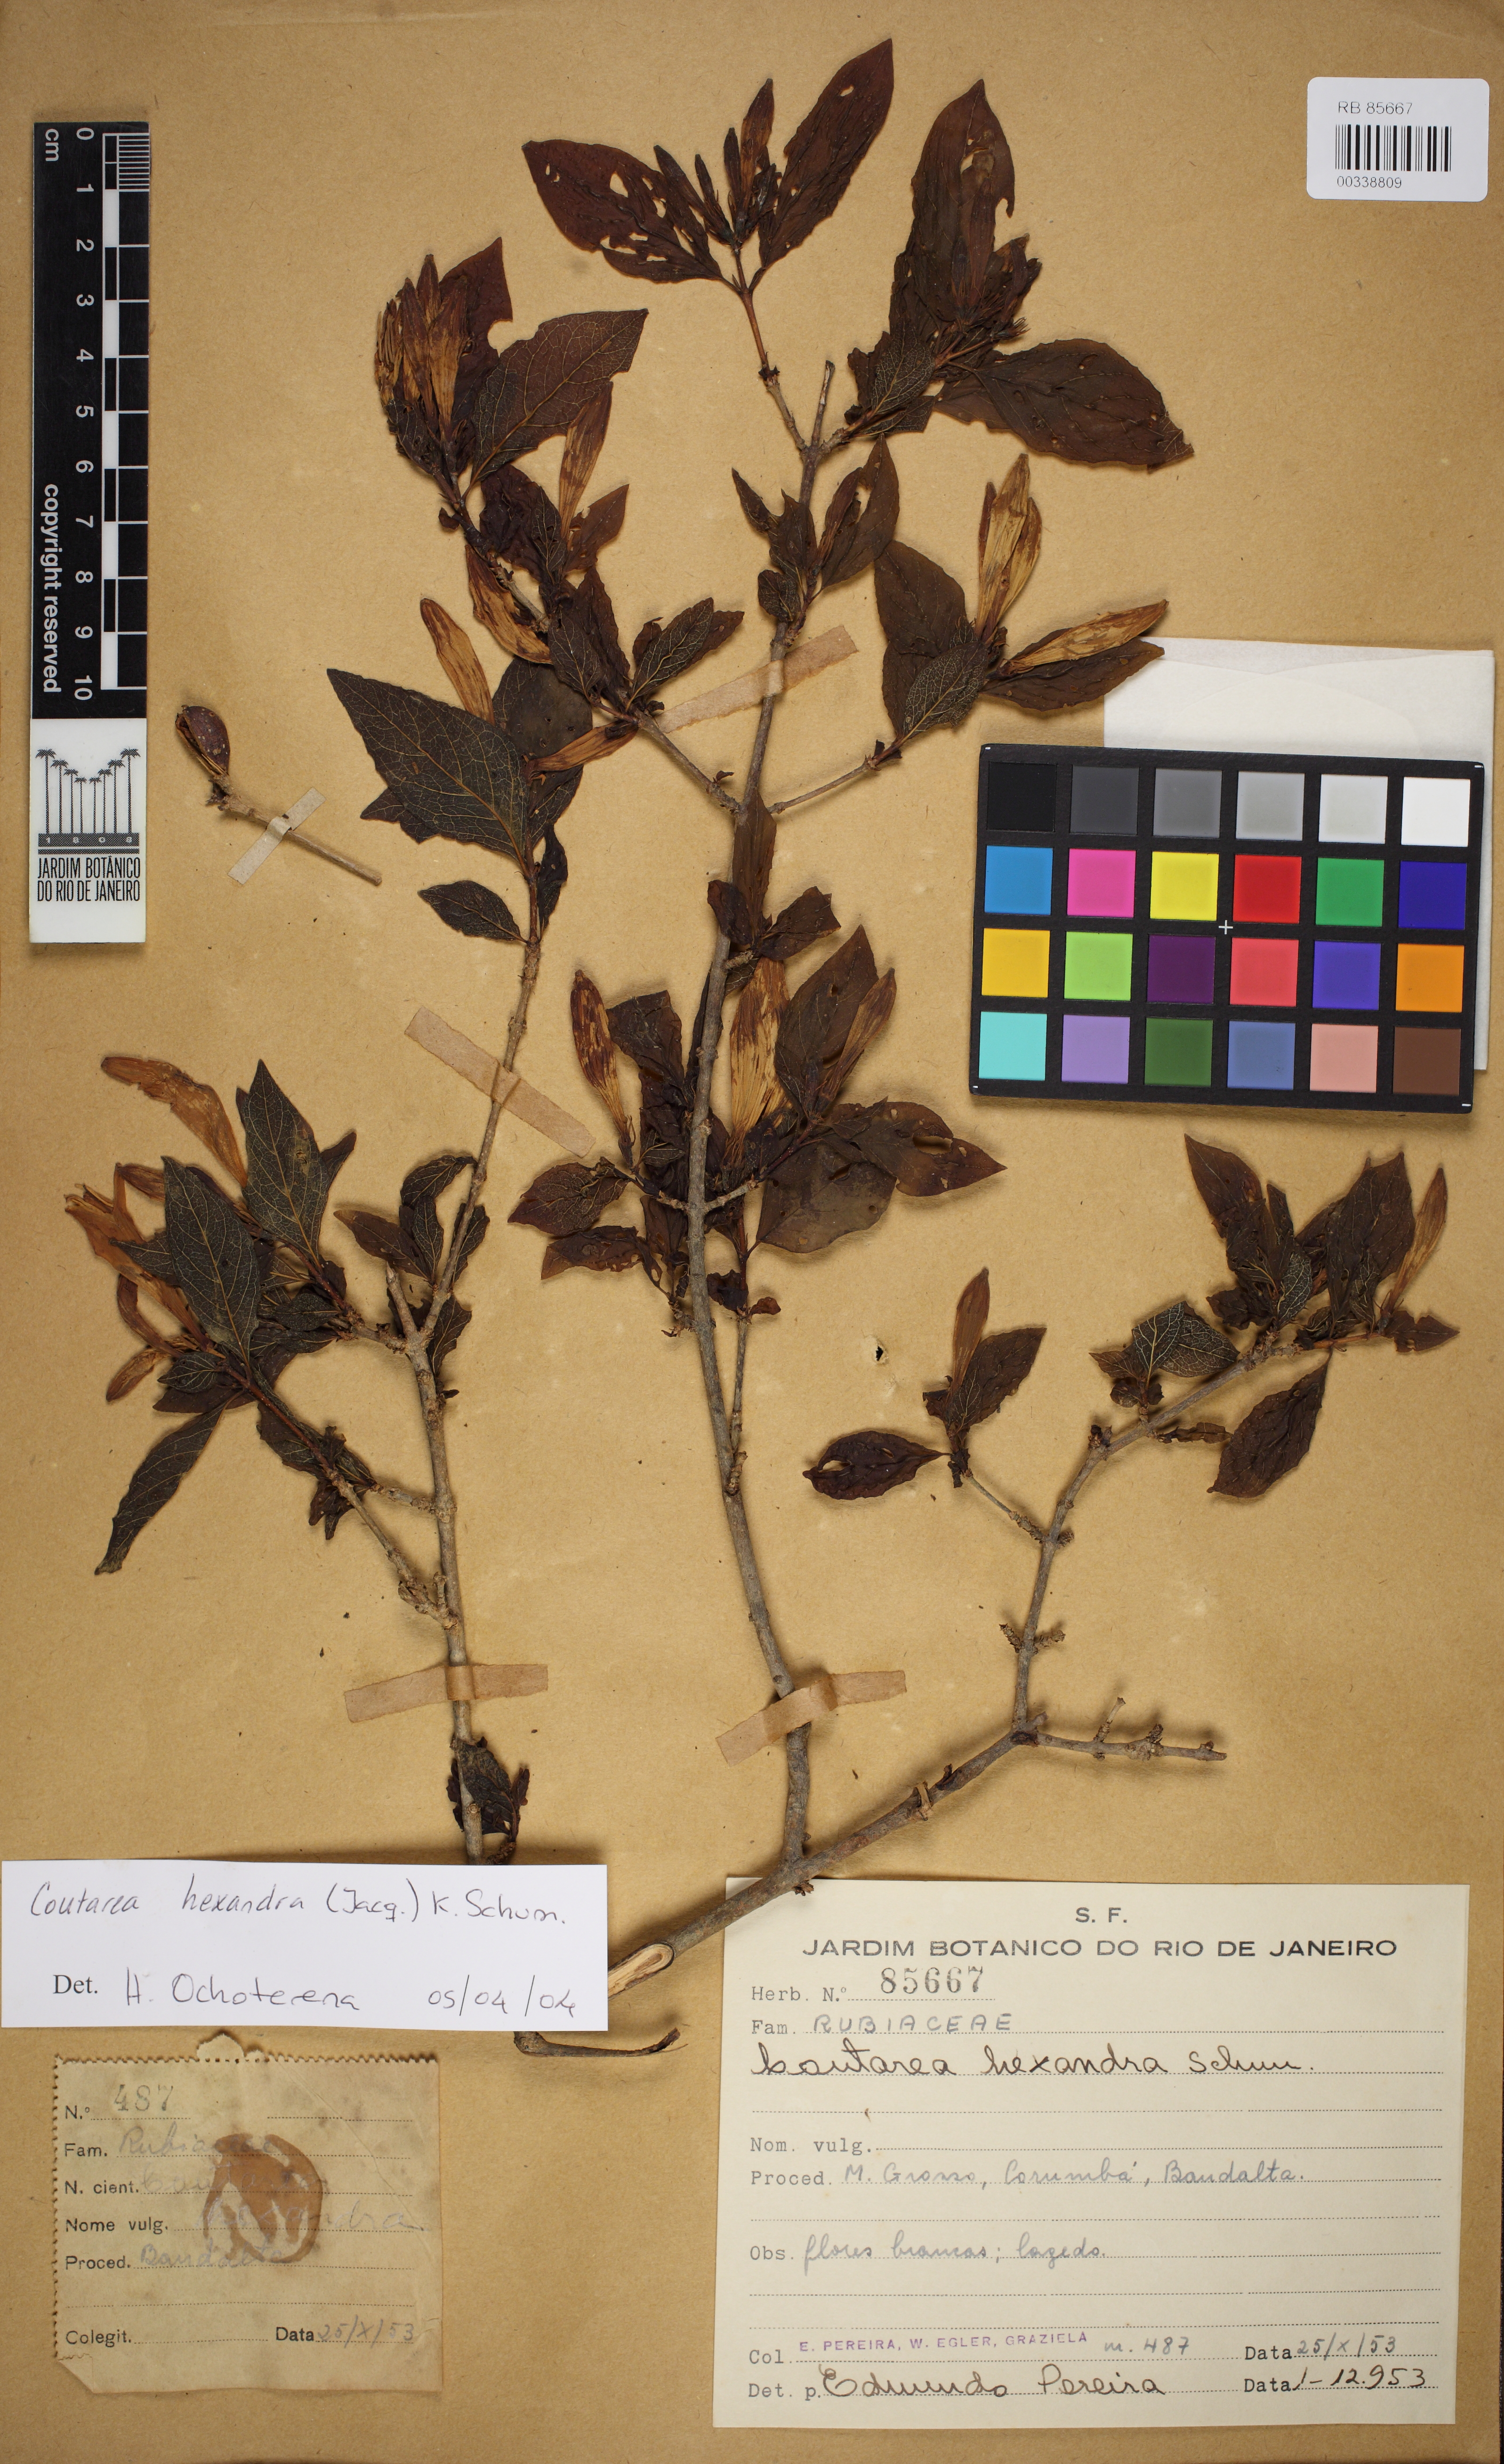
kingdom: Plantae
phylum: Tracheophyta
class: Magnoliopsida
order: Gentianales
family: Rubiaceae
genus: Coutarea
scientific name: Coutarea hexandra
